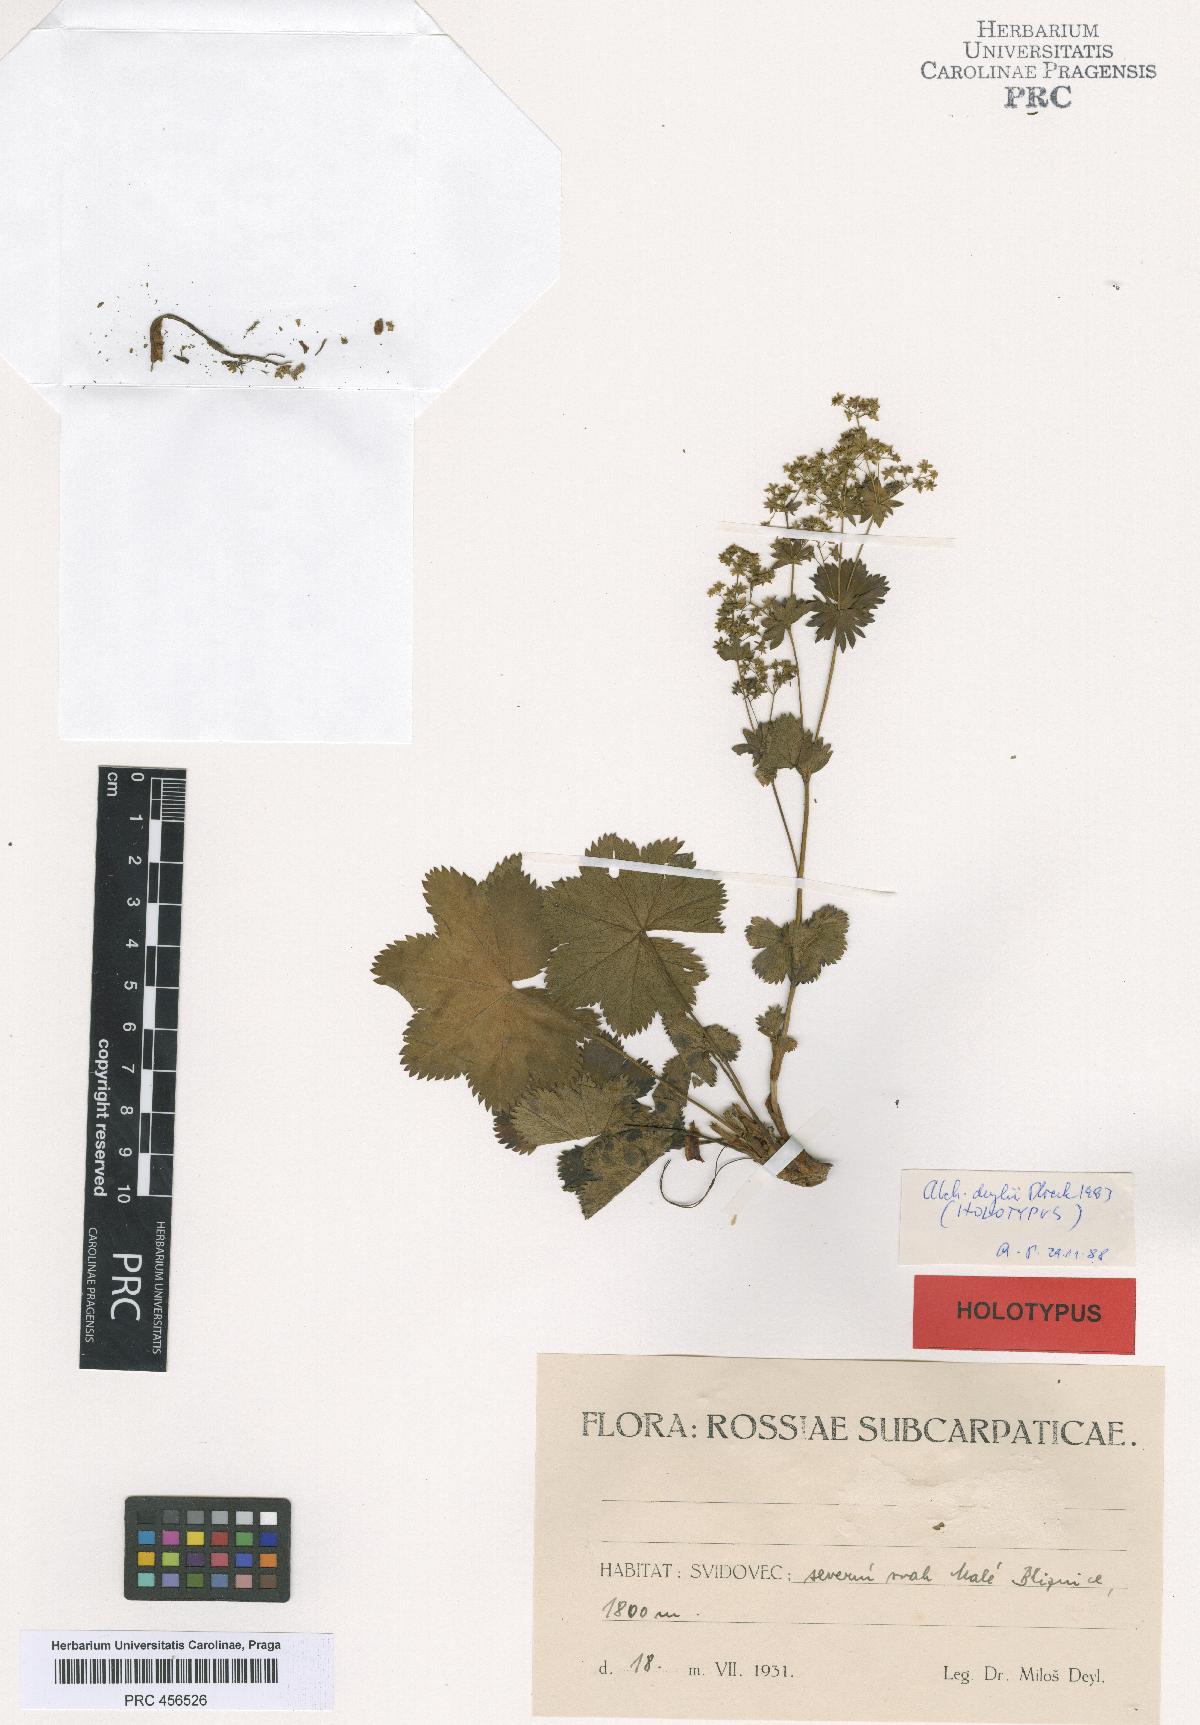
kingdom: Plantae
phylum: Tracheophyta
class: Magnoliopsida
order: Rosales
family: Rosaceae
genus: Alchemilla
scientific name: Alchemilla deylii
